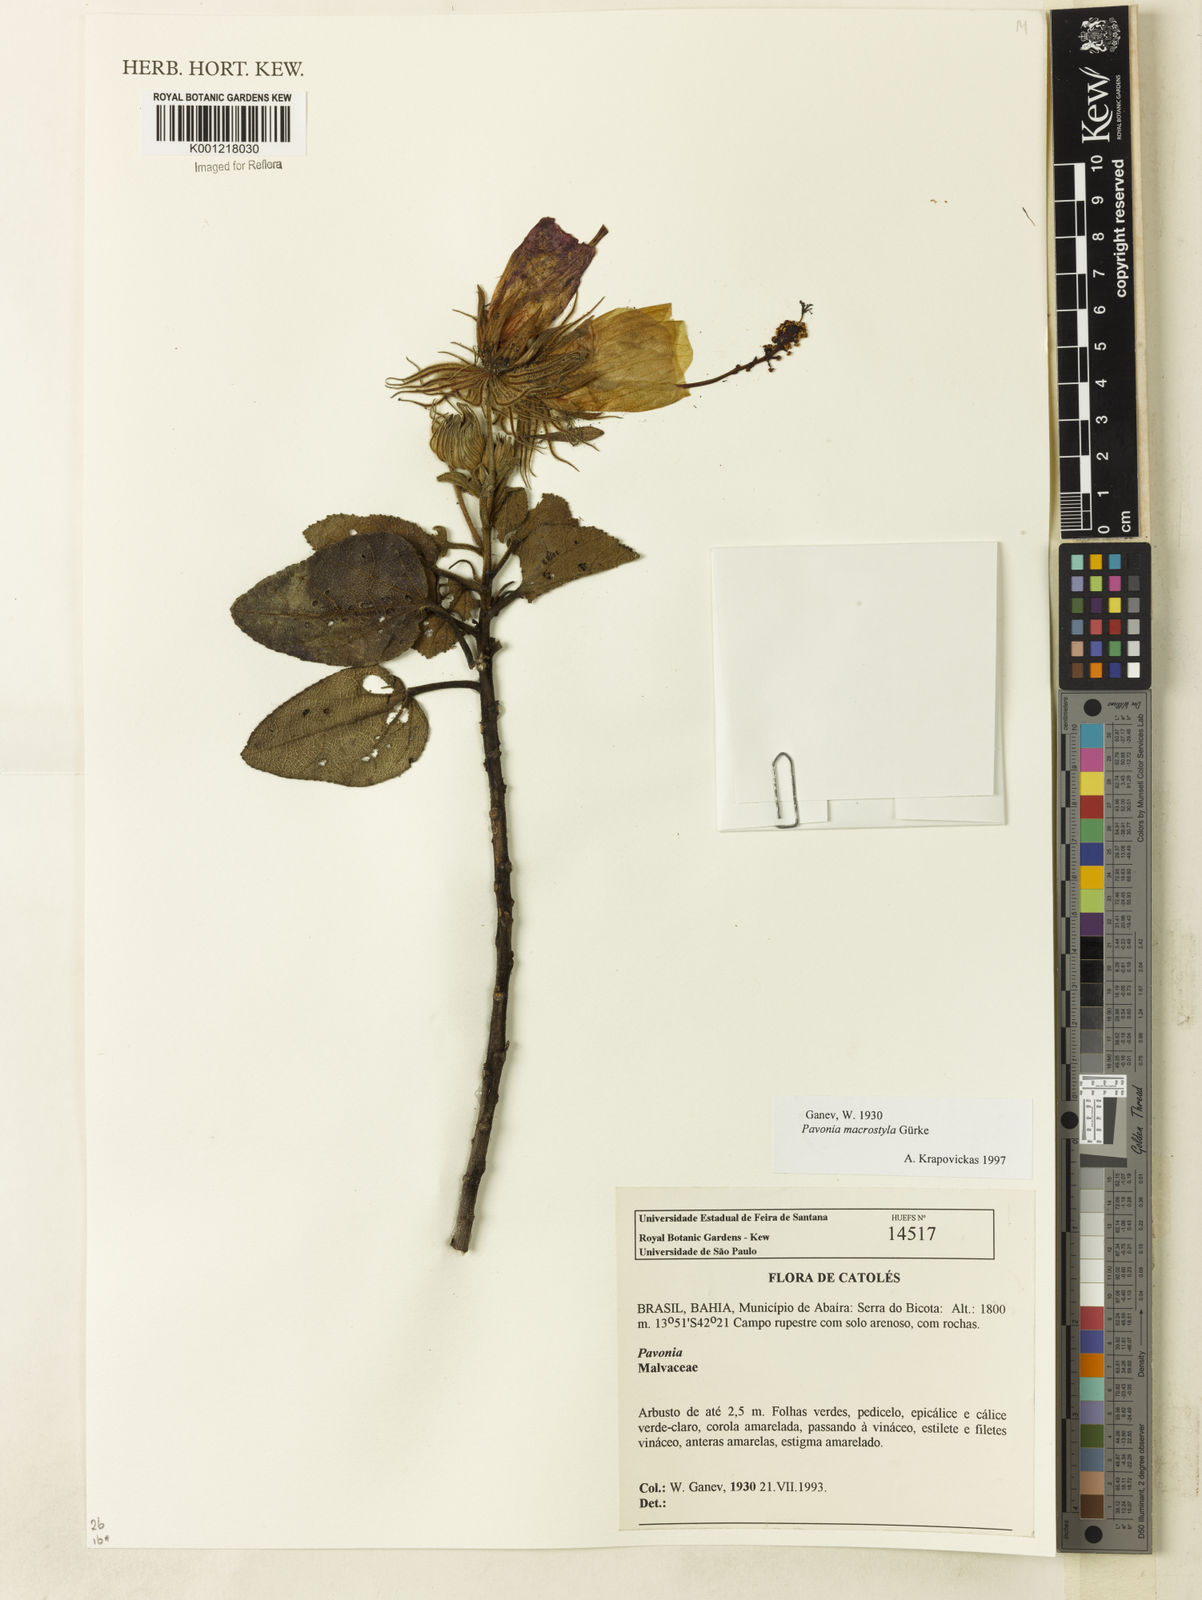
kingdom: Plantae
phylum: Tracheophyta
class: Magnoliopsida
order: Malvales
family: Malvaceae
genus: Pavonia
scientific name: Pavonia
